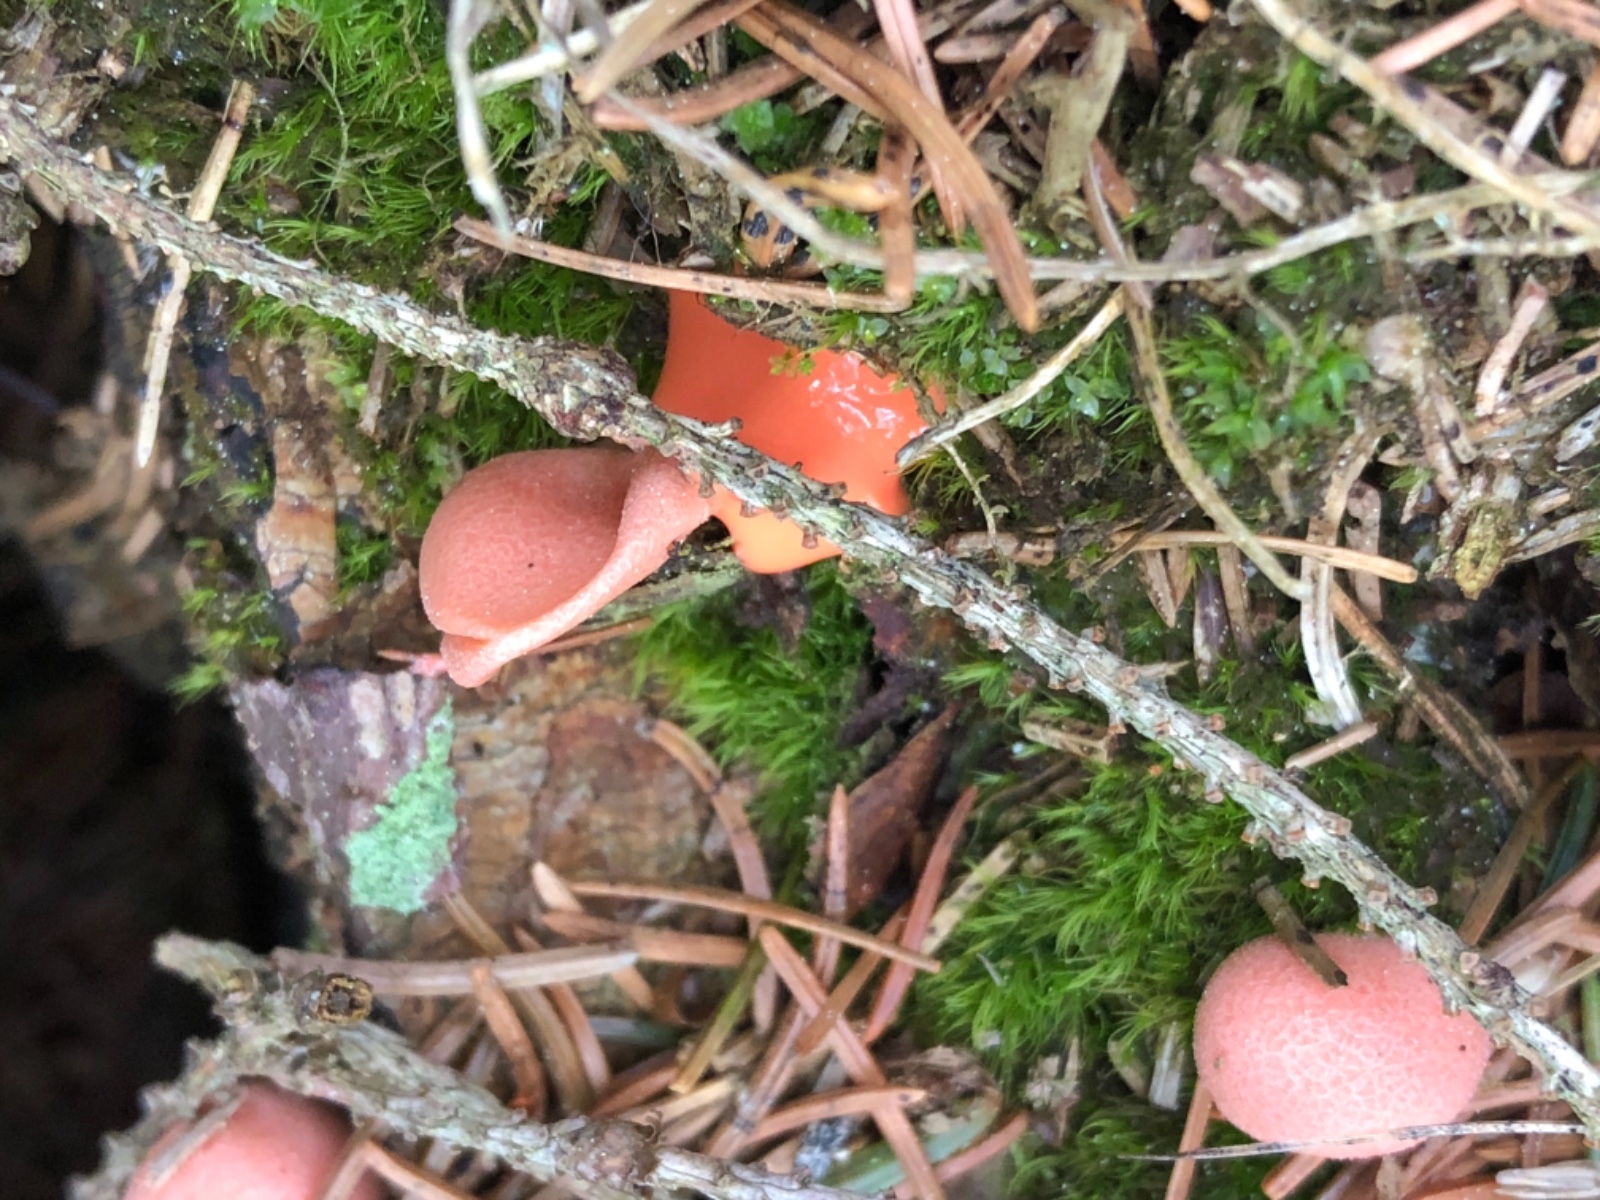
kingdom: Protozoa
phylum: Mycetozoa
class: Myxomycetes
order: Cribrariales
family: Tubiferaceae
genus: Lycogala
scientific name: Lycogala epidendrum
